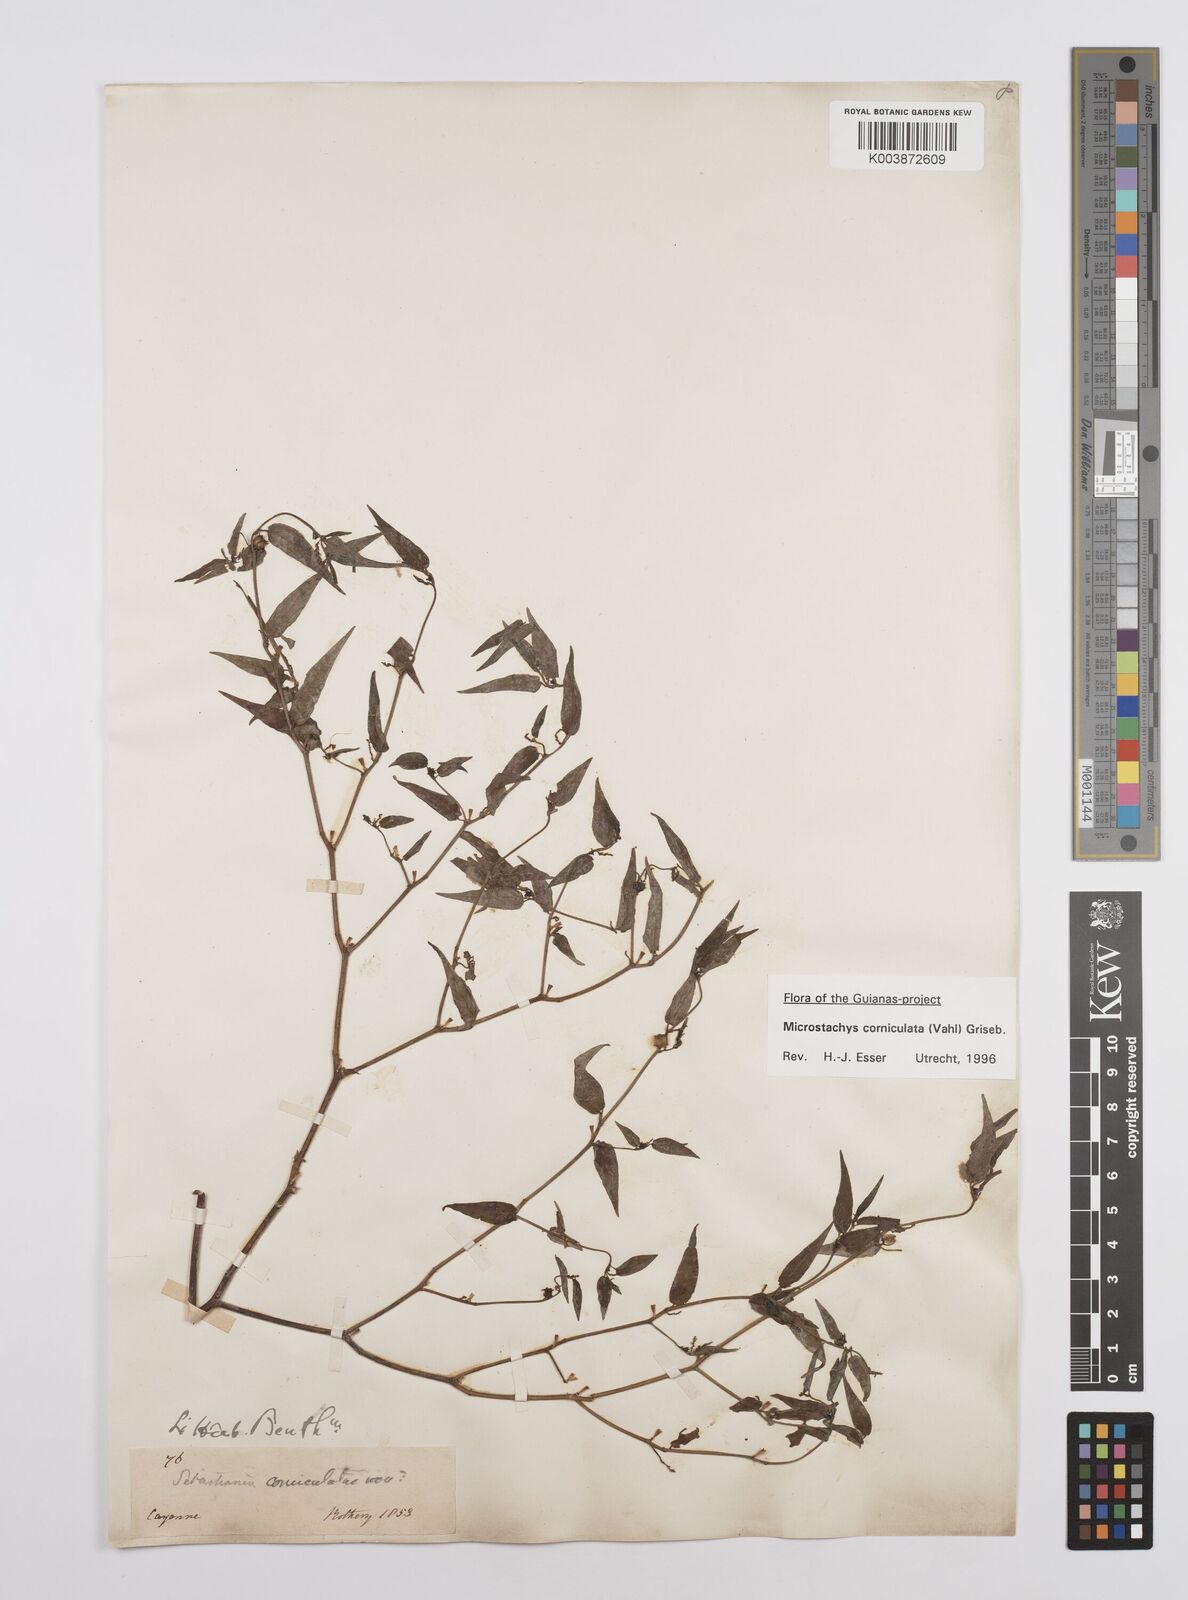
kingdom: Plantae
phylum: Tracheophyta
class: Magnoliopsida
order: Malpighiales
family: Euphorbiaceae
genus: Microstachys
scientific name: Microstachys corniculata
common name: Hato tejas
